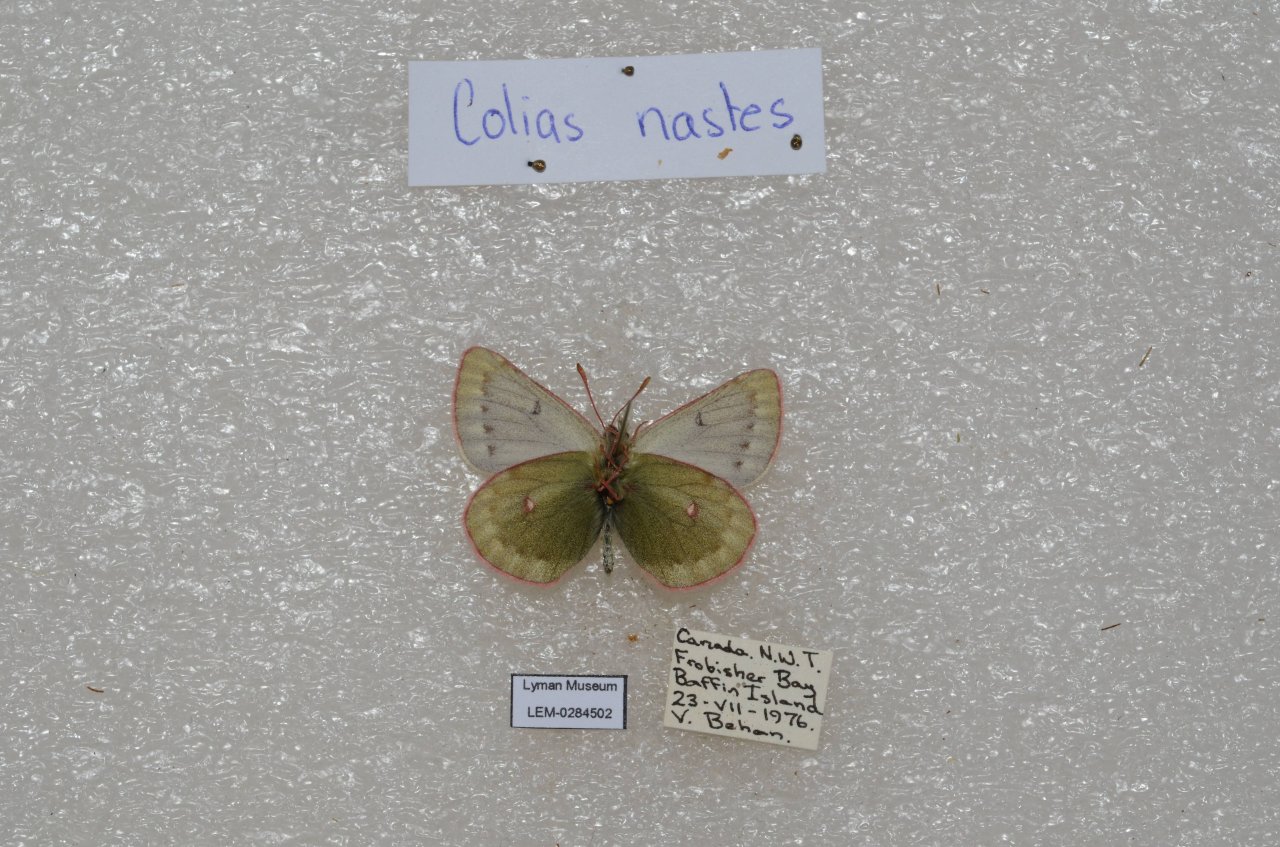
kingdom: Animalia
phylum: Arthropoda
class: Insecta
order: Lepidoptera
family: Pieridae
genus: Colias
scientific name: Colias nastes
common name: Labrador Sulphur
